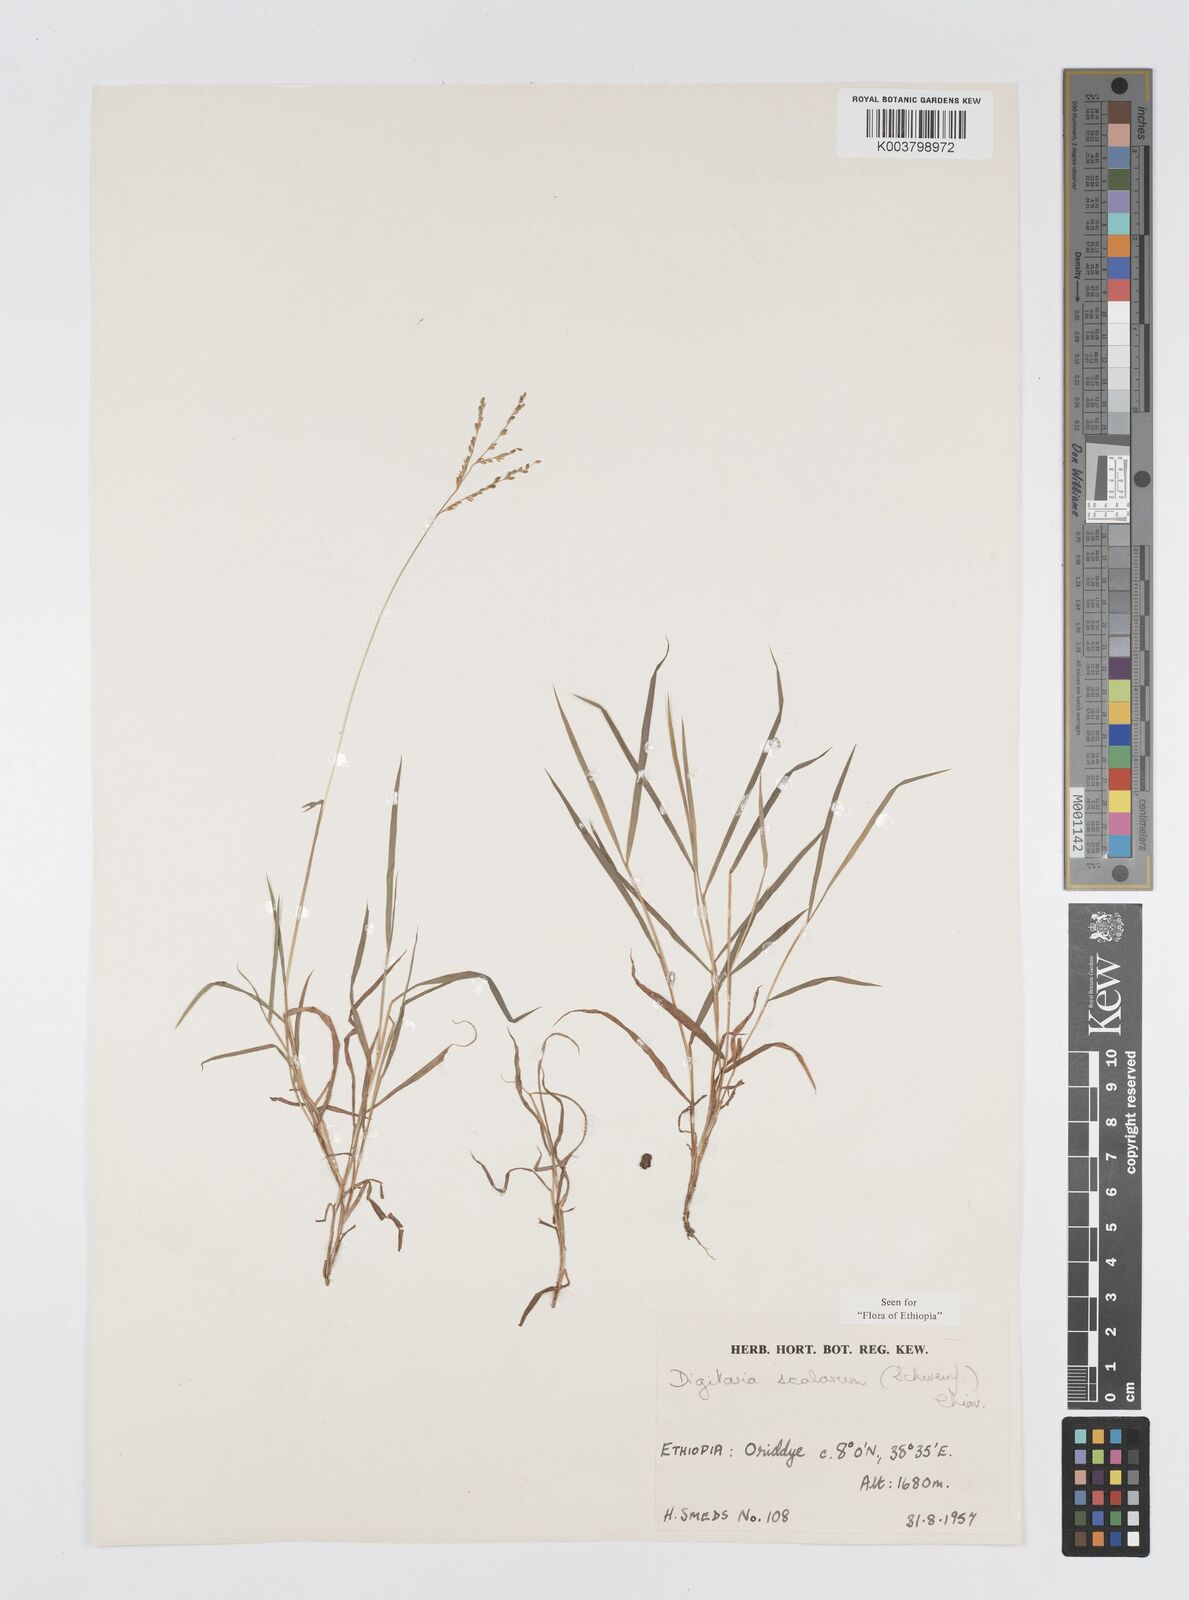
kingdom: Plantae
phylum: Tracheophyta
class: Liliopsida
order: Poales
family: Poaceae
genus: Digitaria
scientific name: Digitaria abyssinica
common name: African couchgrass
